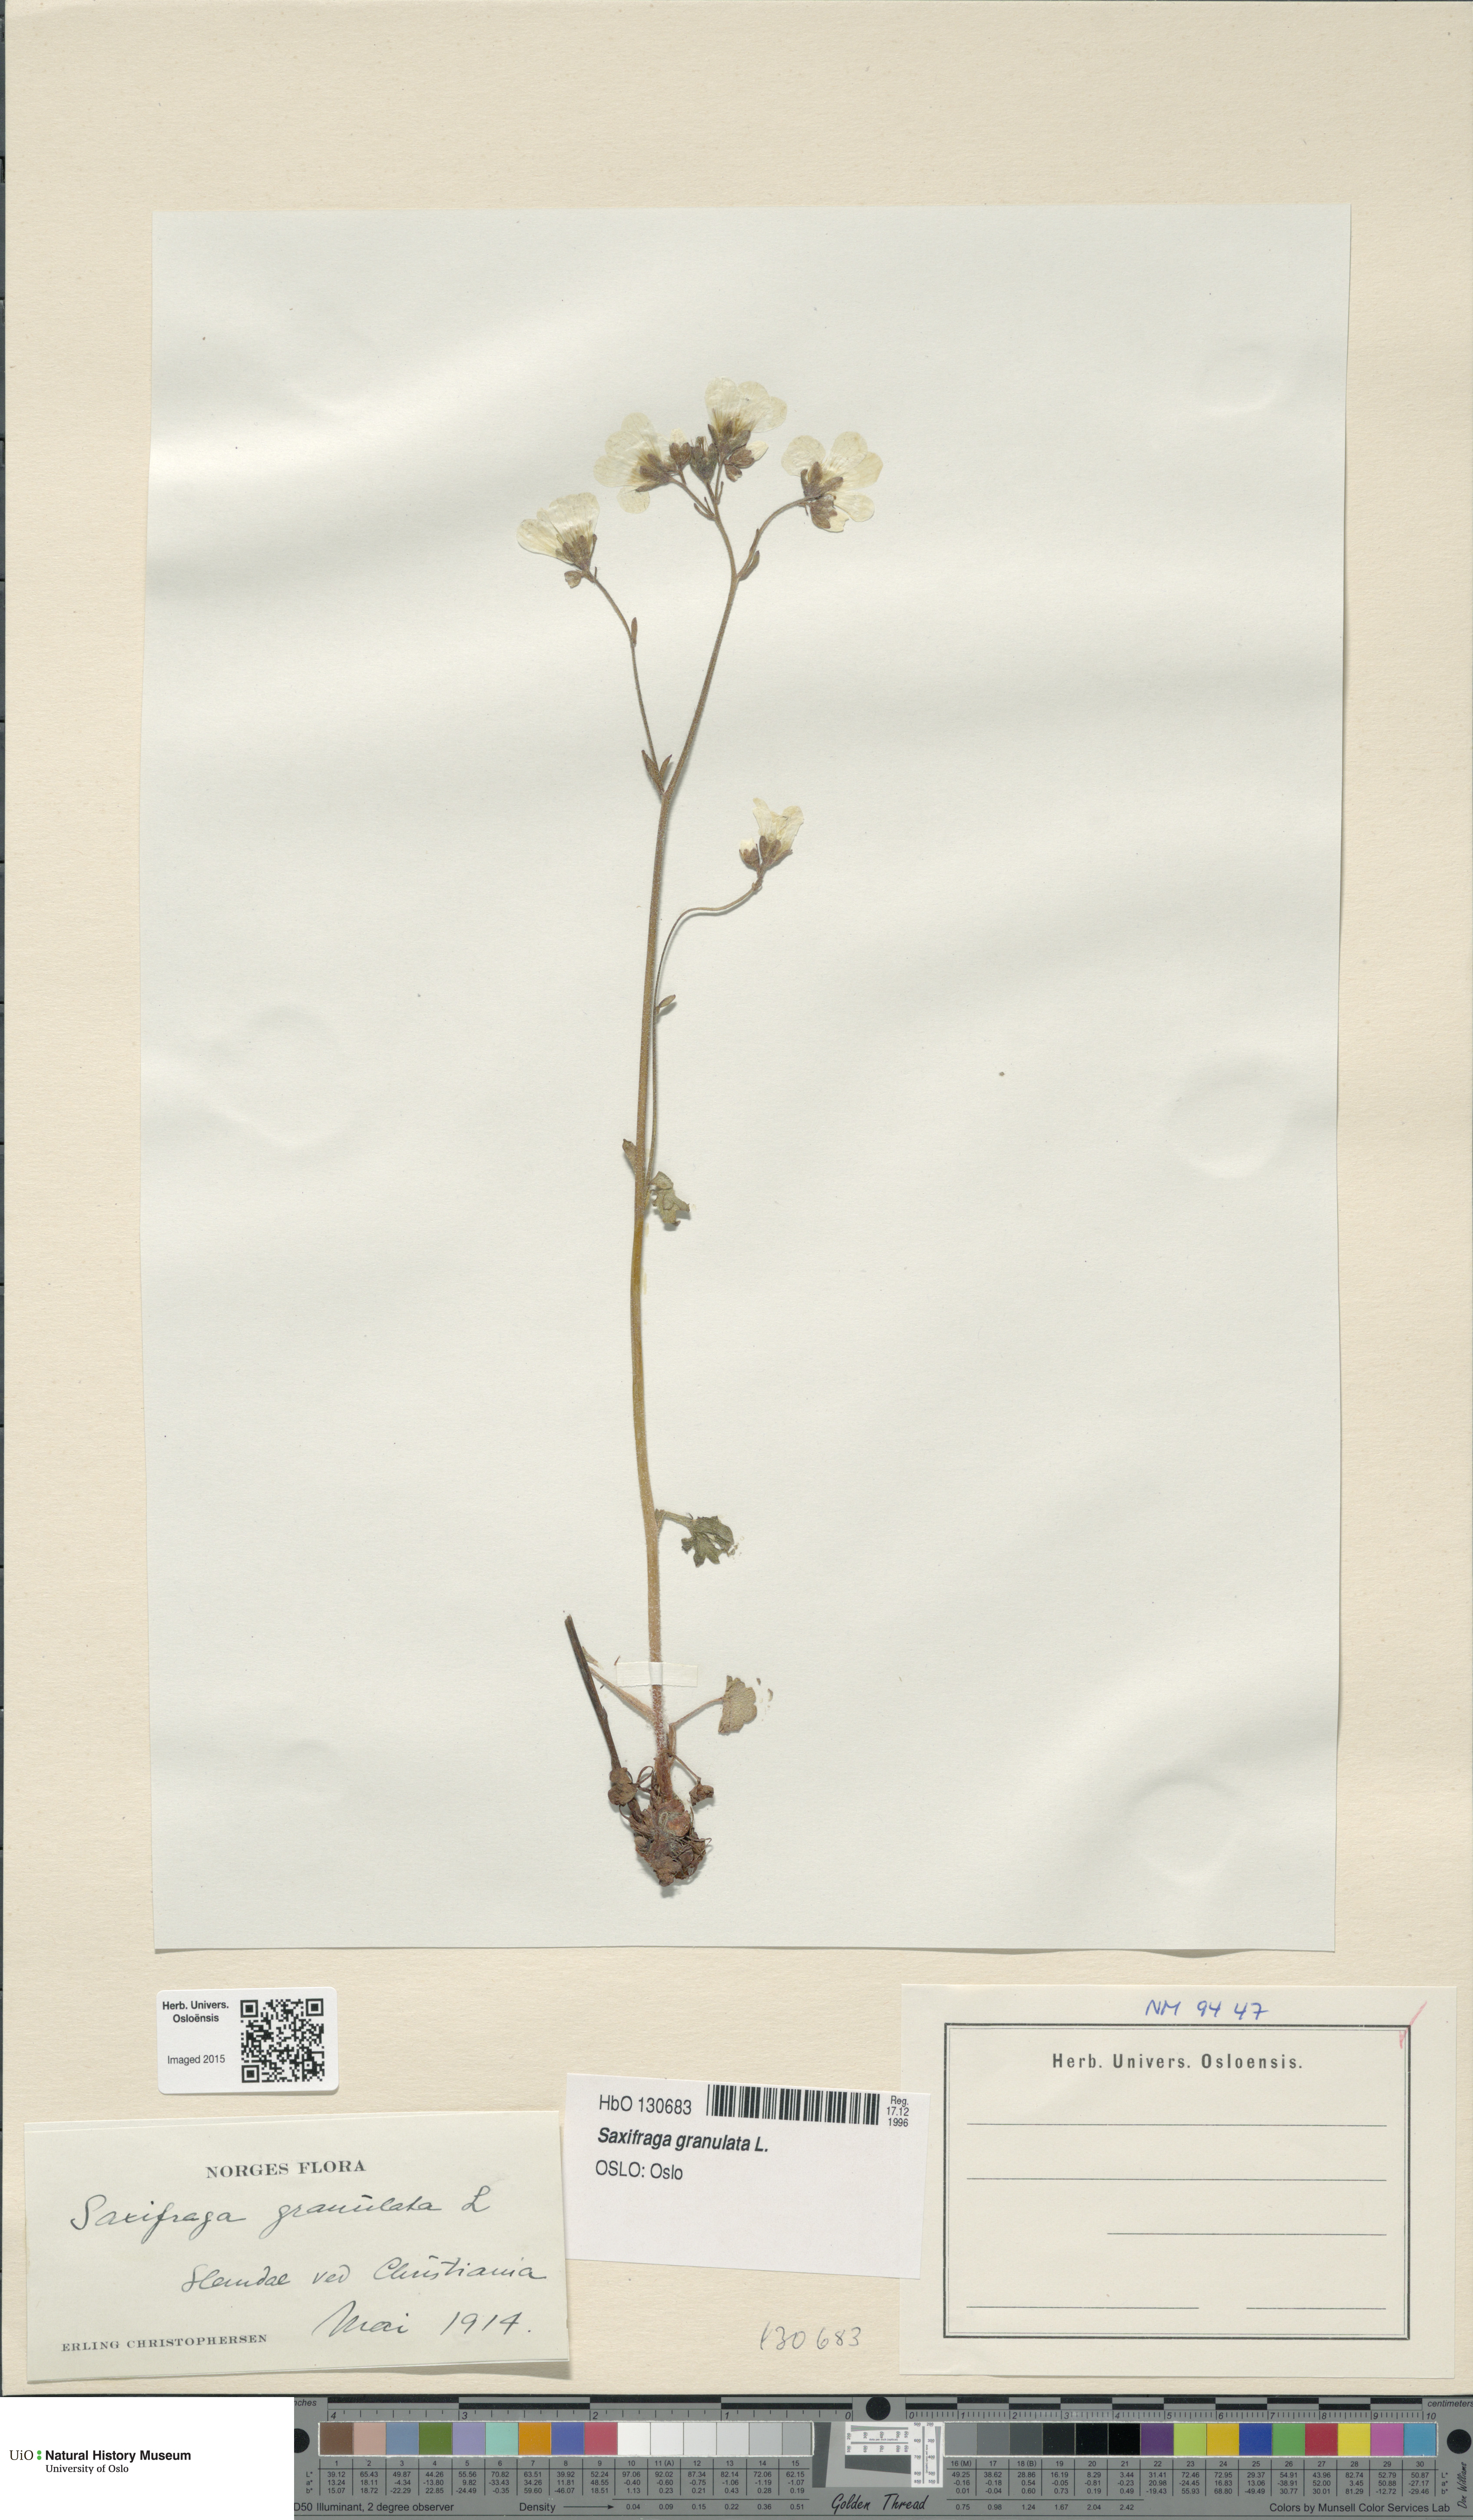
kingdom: Plantae
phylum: Tracheophyta
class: Magnoliopsida
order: Saxifragales
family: Saxifragaceae
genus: Saxifraga
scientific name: Saxifraga granulata
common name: Meadow saxifrage
